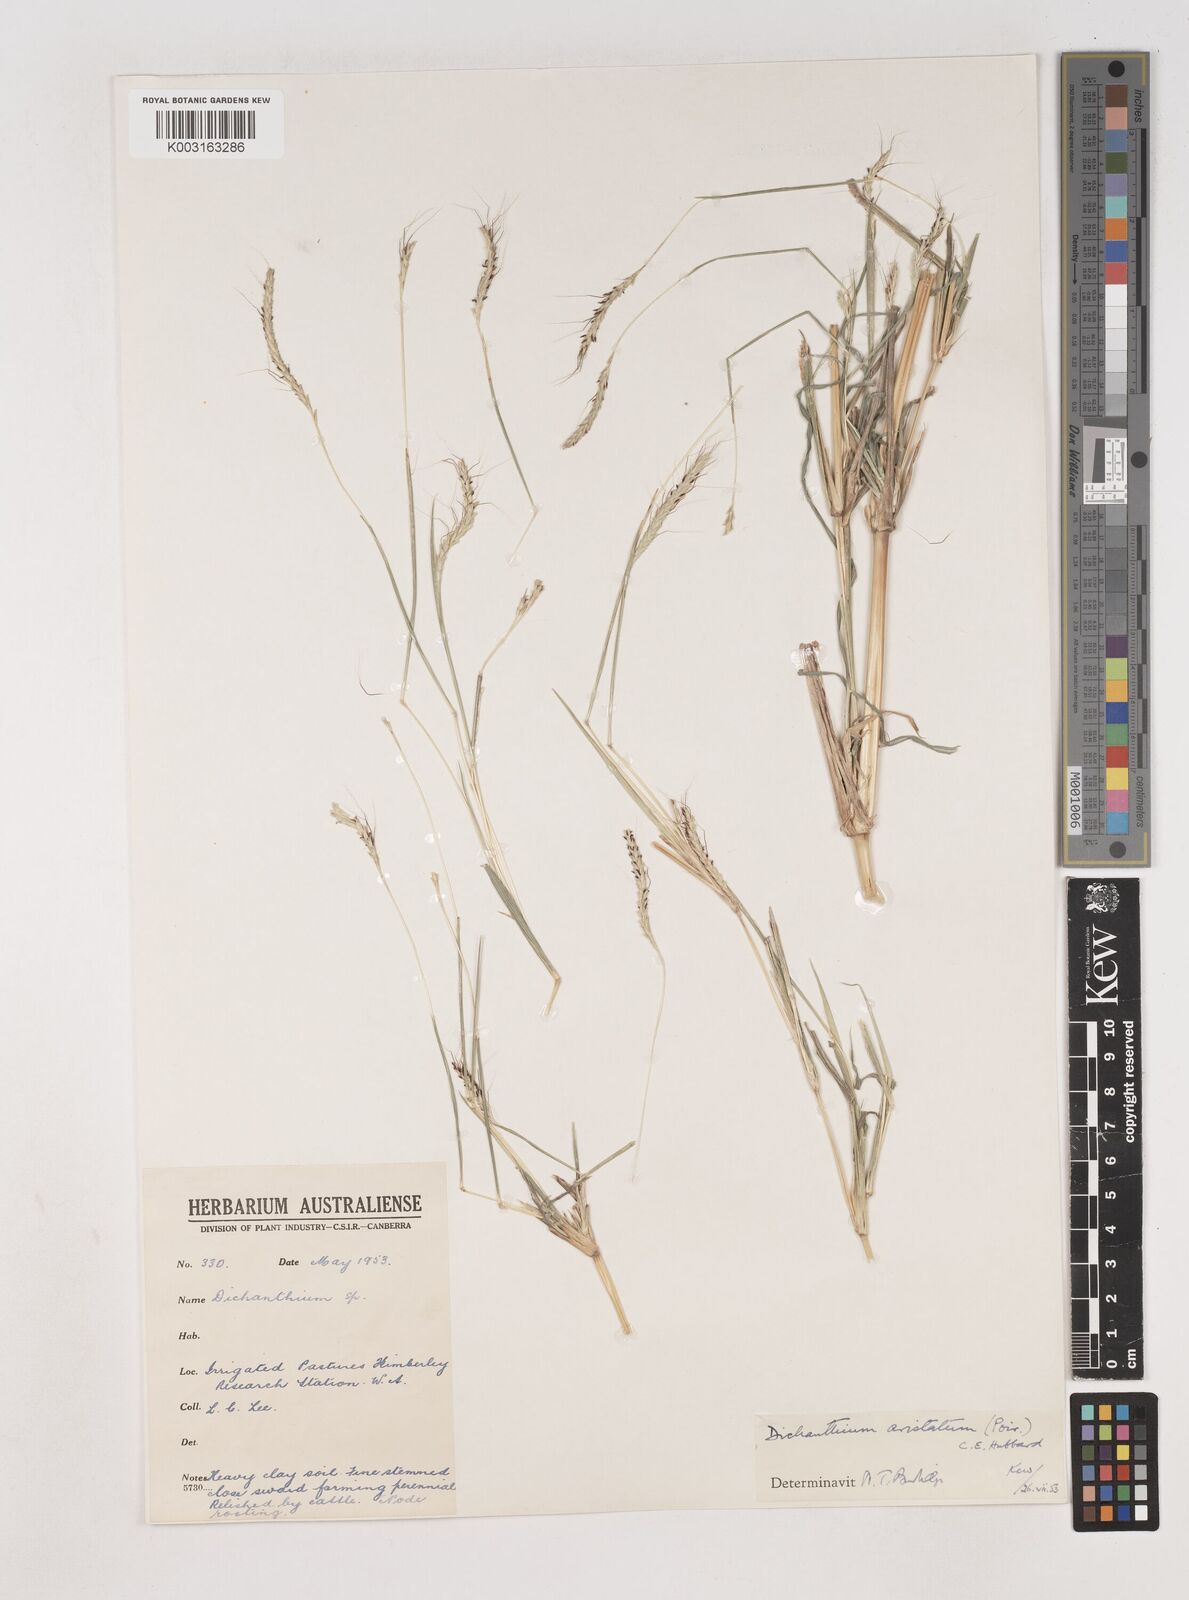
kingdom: Plantae
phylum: Tracheophyta
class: Liliopsida
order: Poales
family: Poaceae
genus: Dichanthium
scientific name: Dichanthium aristatum
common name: Angleton bluestem
